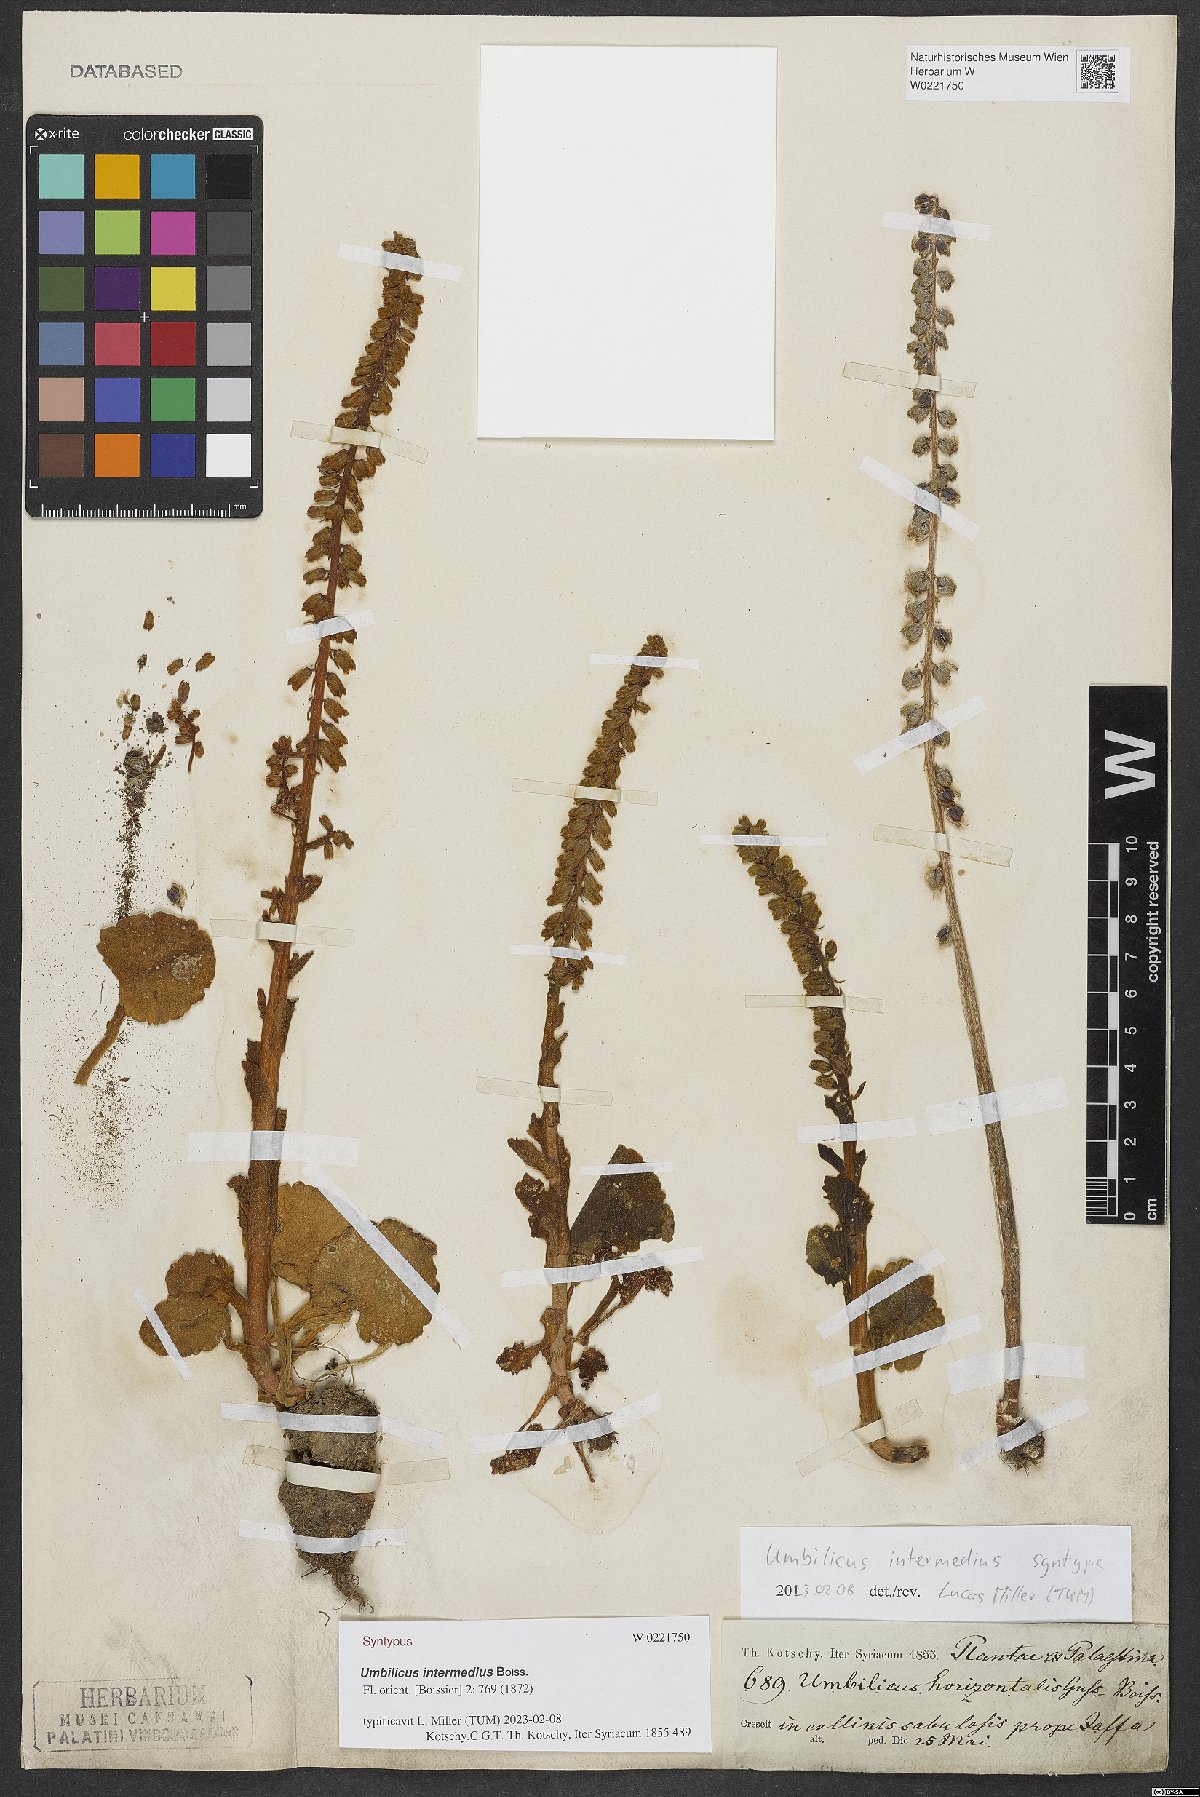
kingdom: Plantae
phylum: Tracheophyta
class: Magnoliopsida
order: Saxifragales
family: Crassulaceae
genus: Umbilicus
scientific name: Umbilicus horizontalis
